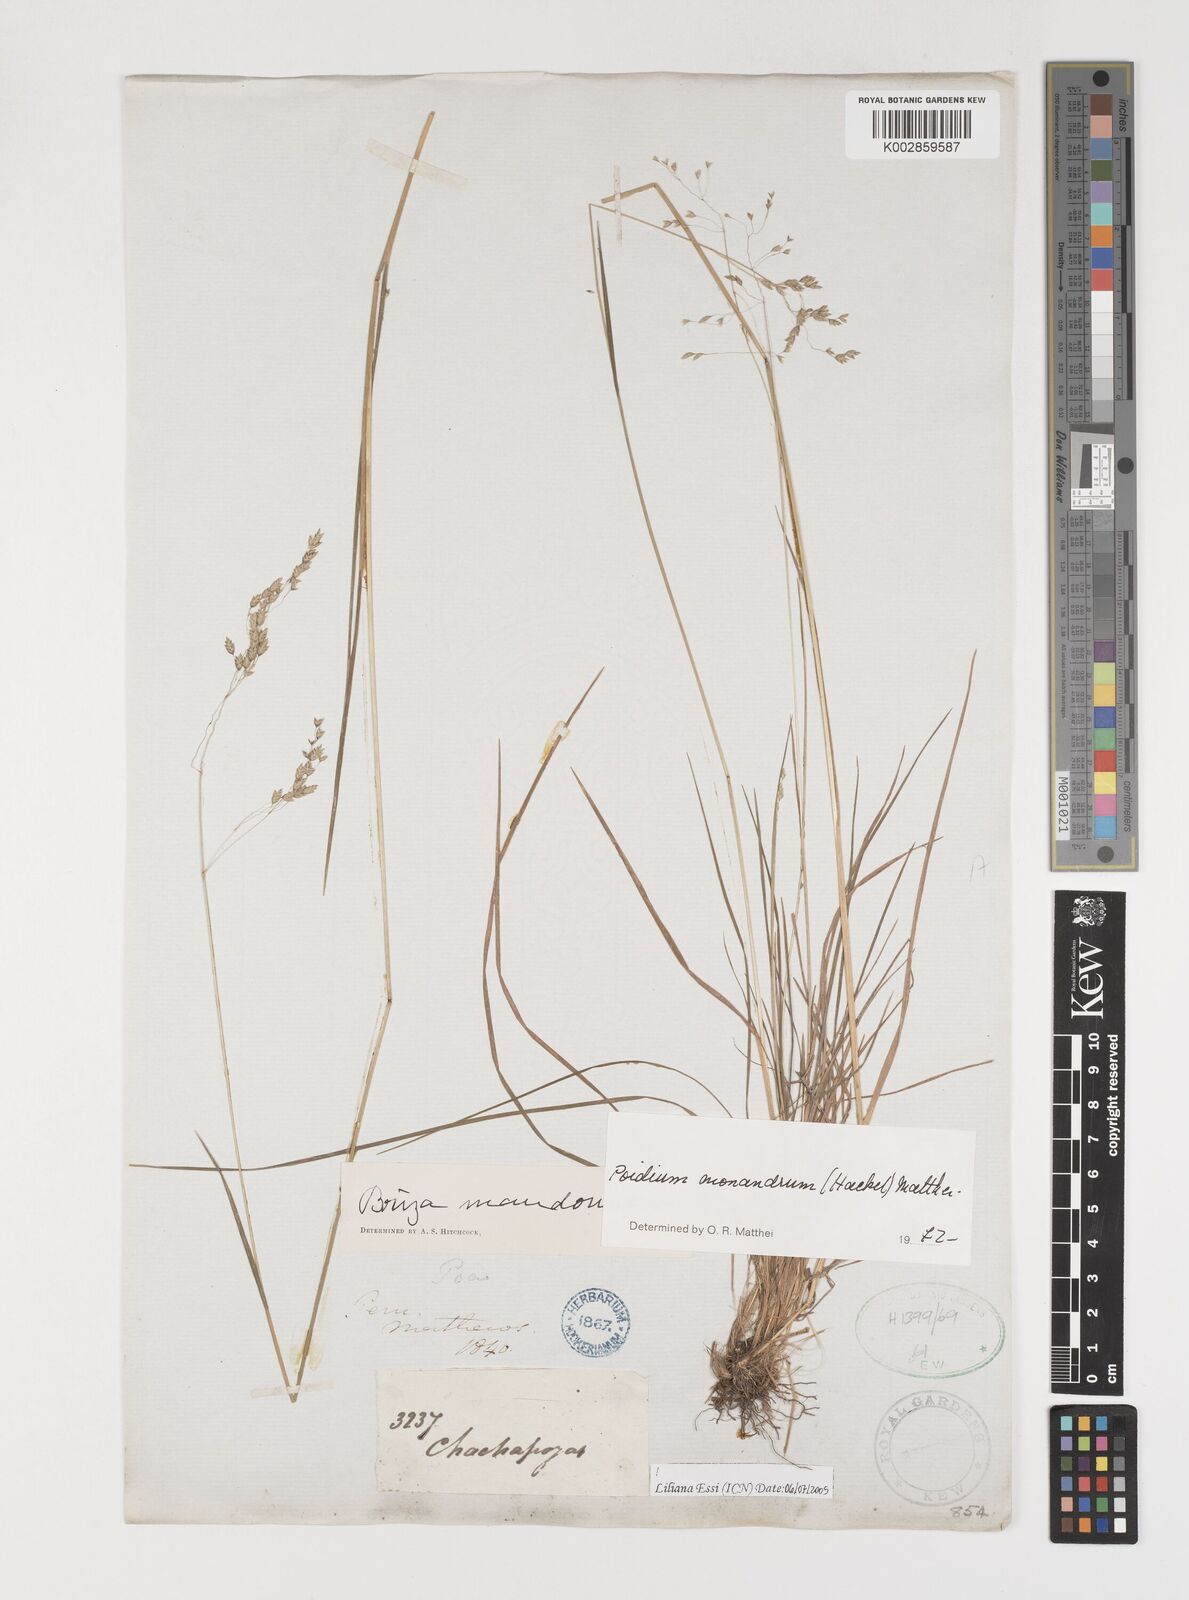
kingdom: Plantae
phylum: Tracheophyta
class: Liliopsida
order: Poales
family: Poaceae
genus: Poidium
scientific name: Poidium monandrum
